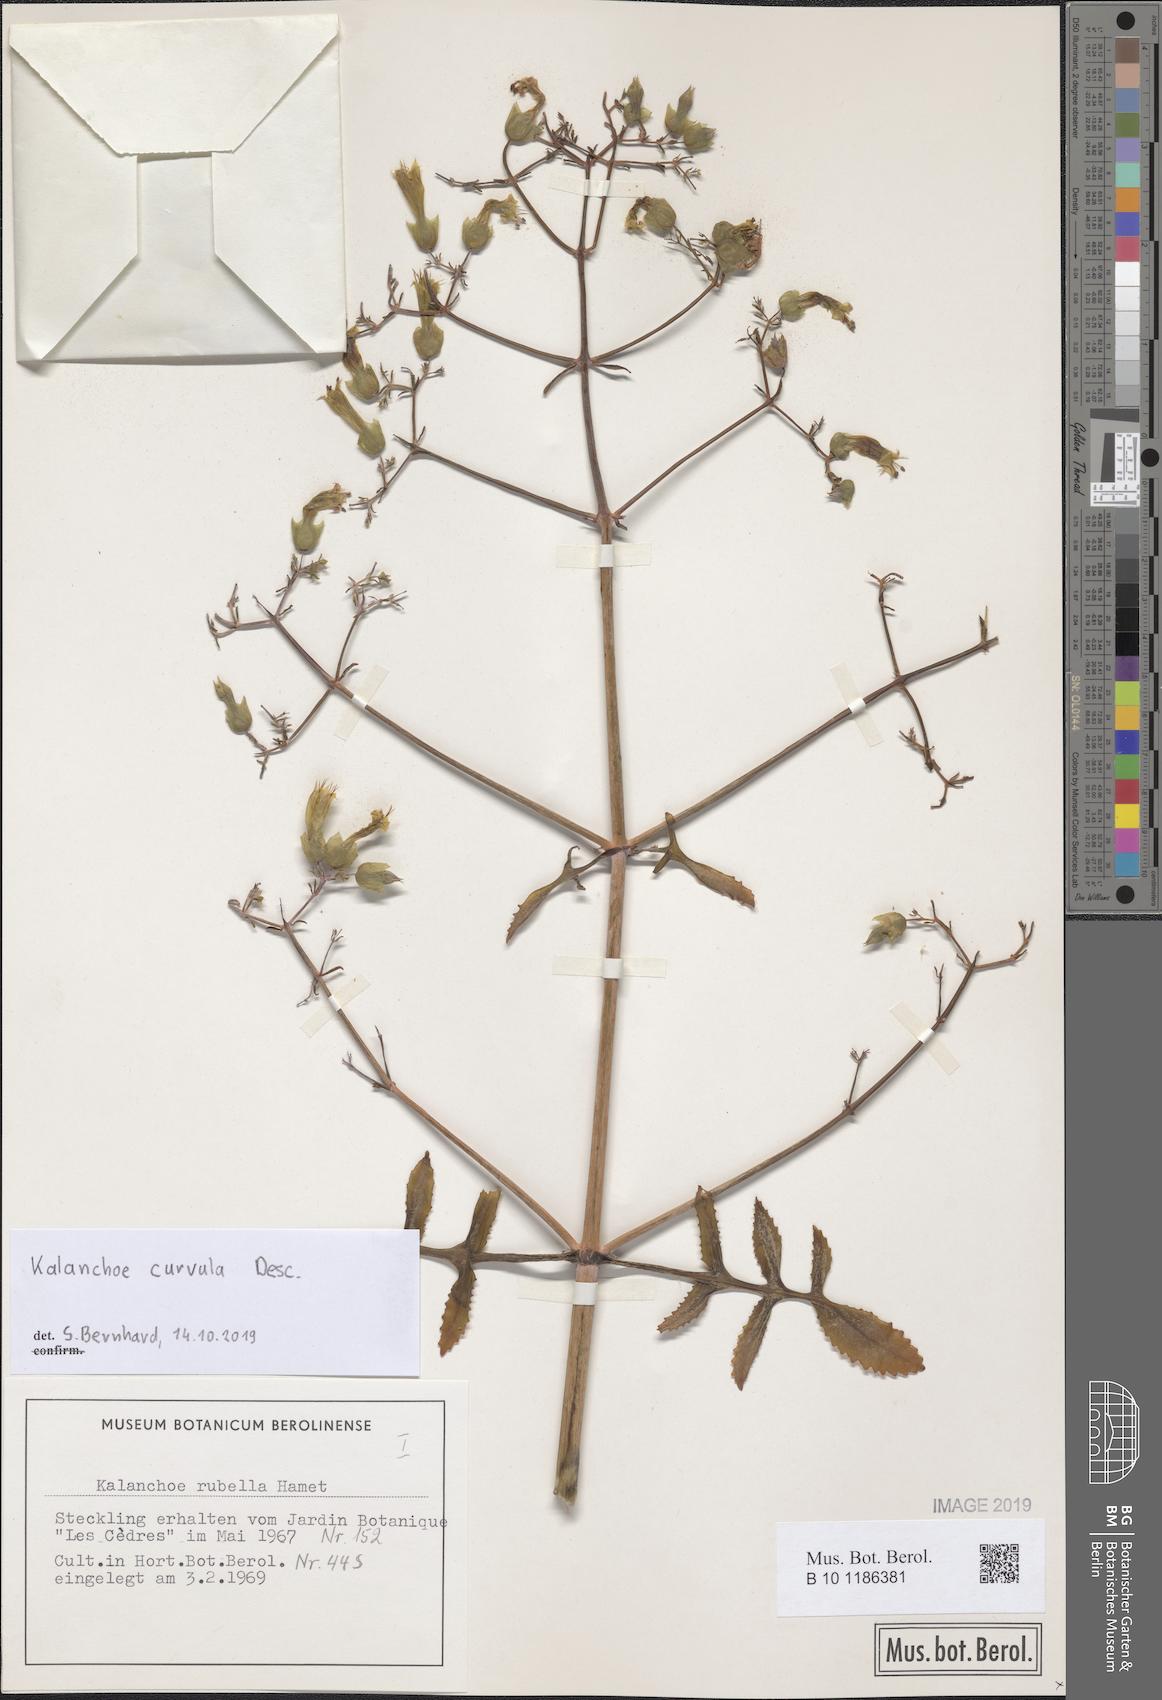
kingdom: Plantae
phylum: Tracheophyta
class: Magnoliopsida
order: Saxifragales
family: Crassulaceae
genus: Kalanchoe
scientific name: Kalanchoe curvula
